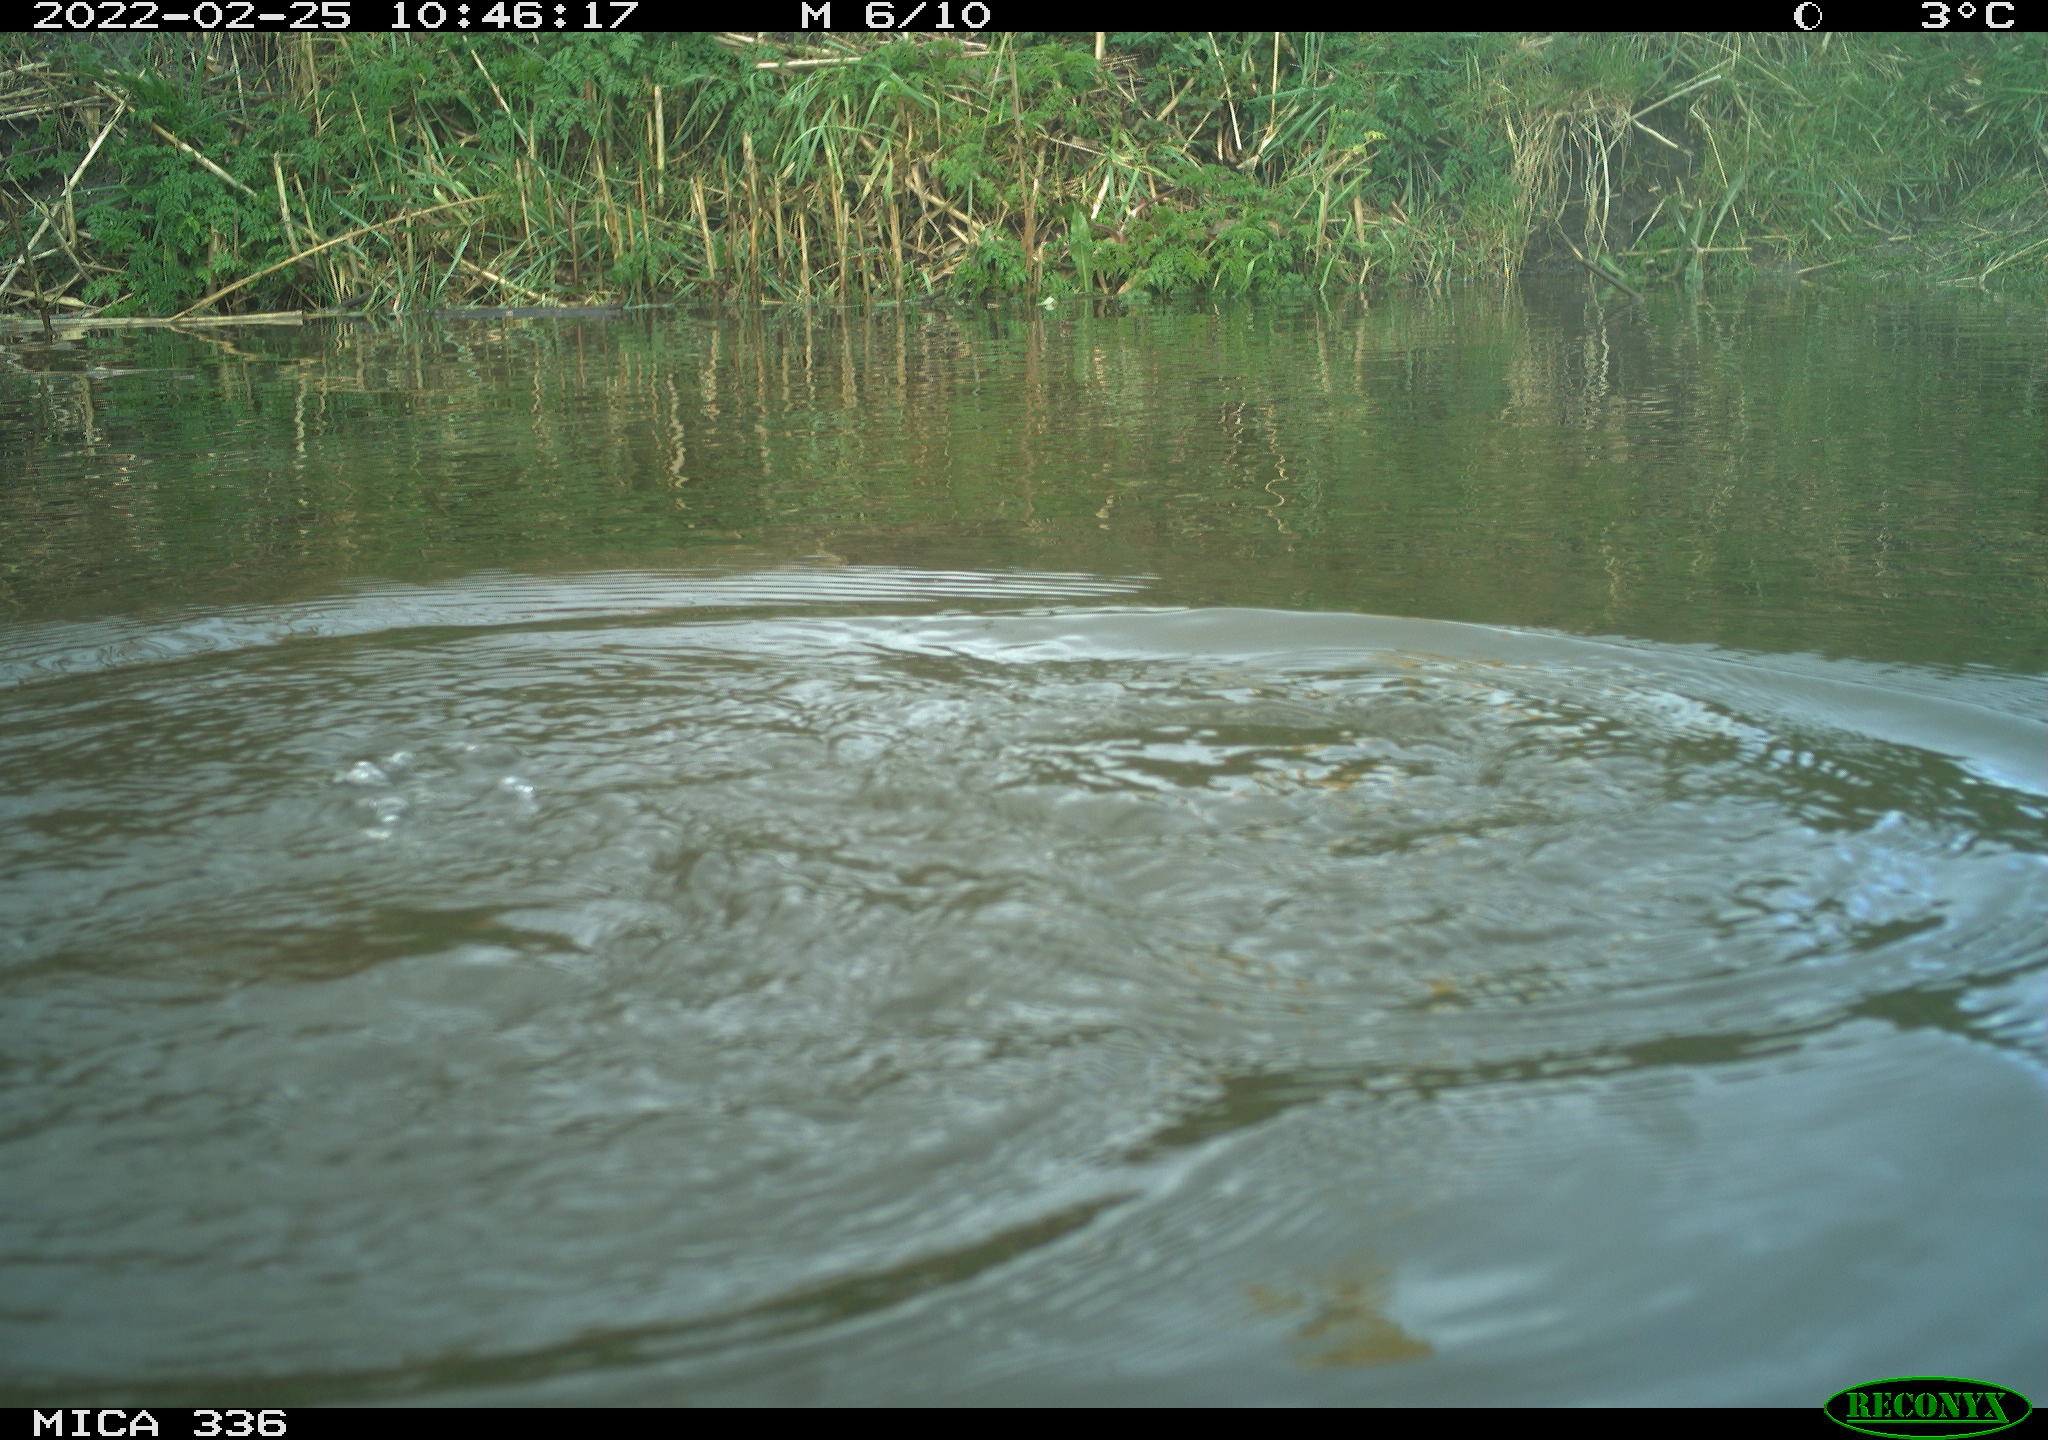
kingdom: Animalia
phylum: Chordata
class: Aves
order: Podicipediformes
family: Podicipedidae
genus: Podiceps
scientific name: Podiceps cristatus
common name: Great crested grebe
